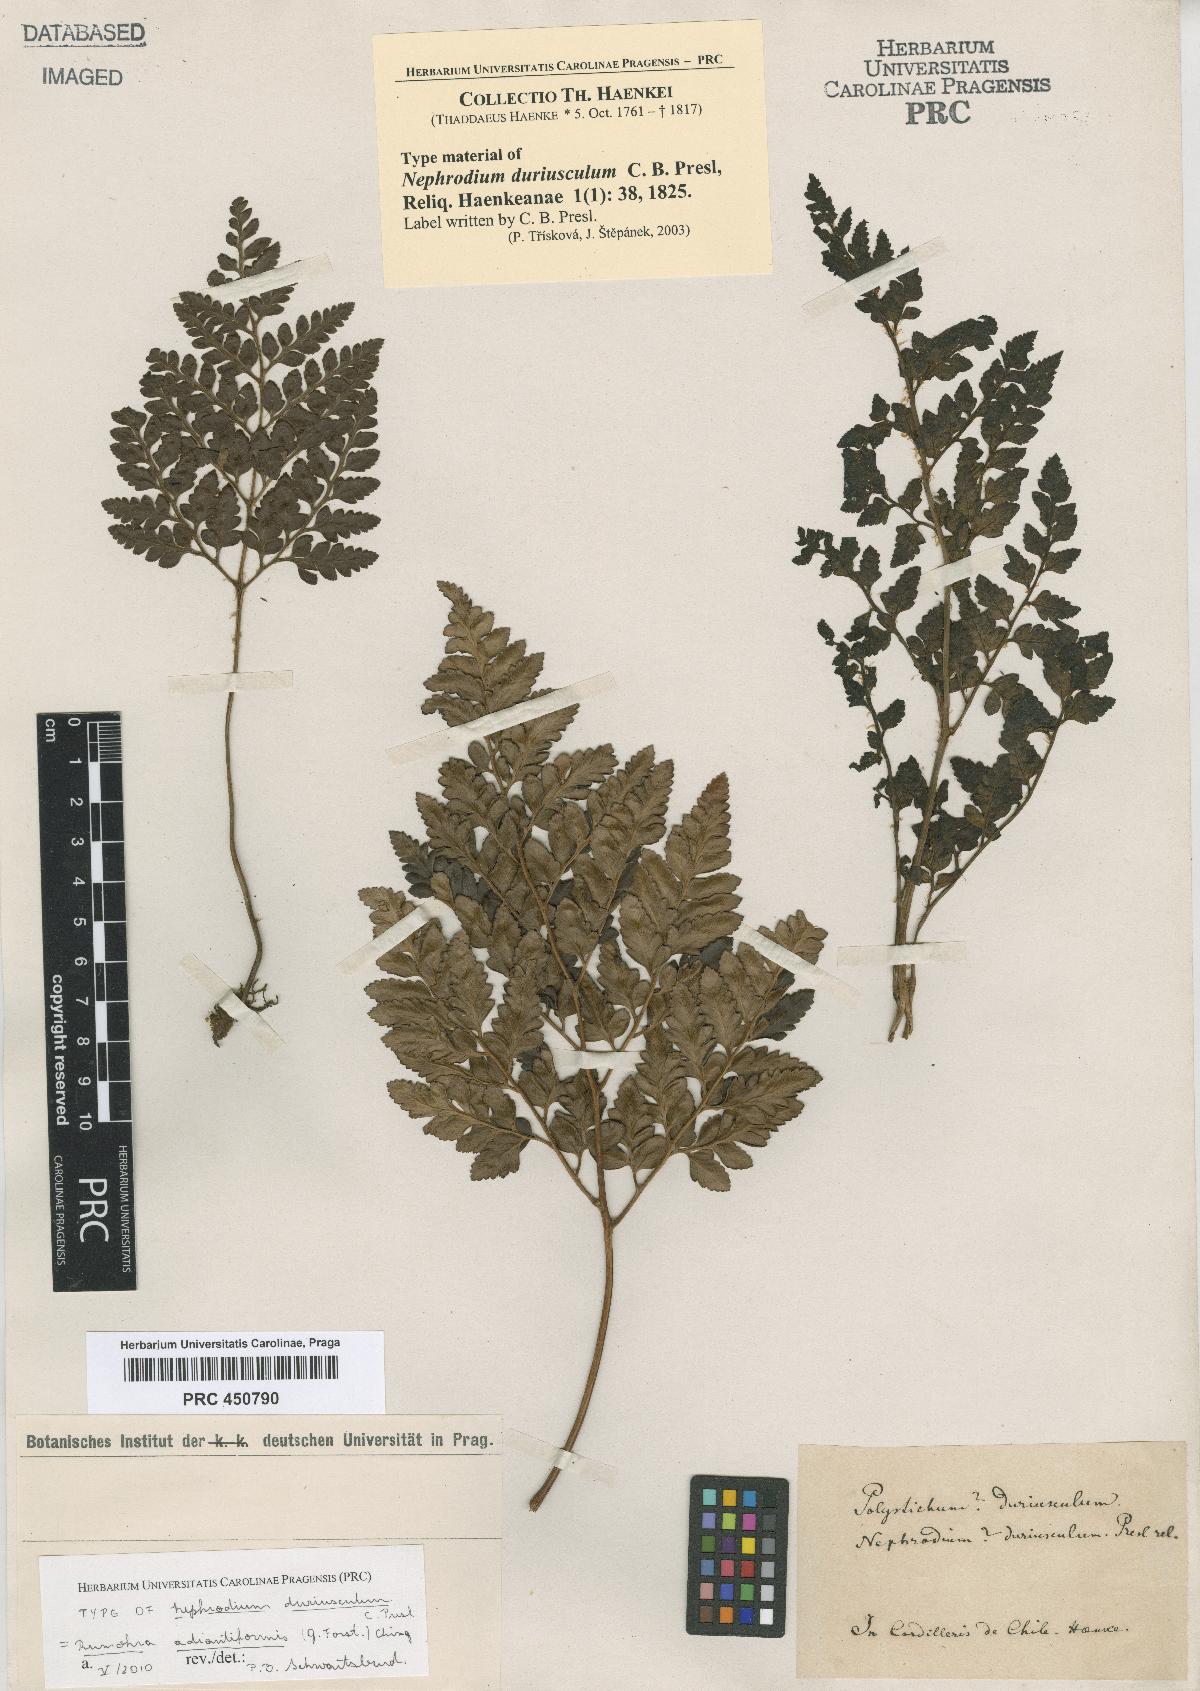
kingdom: Plantae
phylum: Tracheophyta
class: Polypodiopsida
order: Polypodiales
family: Dryopteridaceae
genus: Rumohra
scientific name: Rumohra adiantiformis
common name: Leather fern
